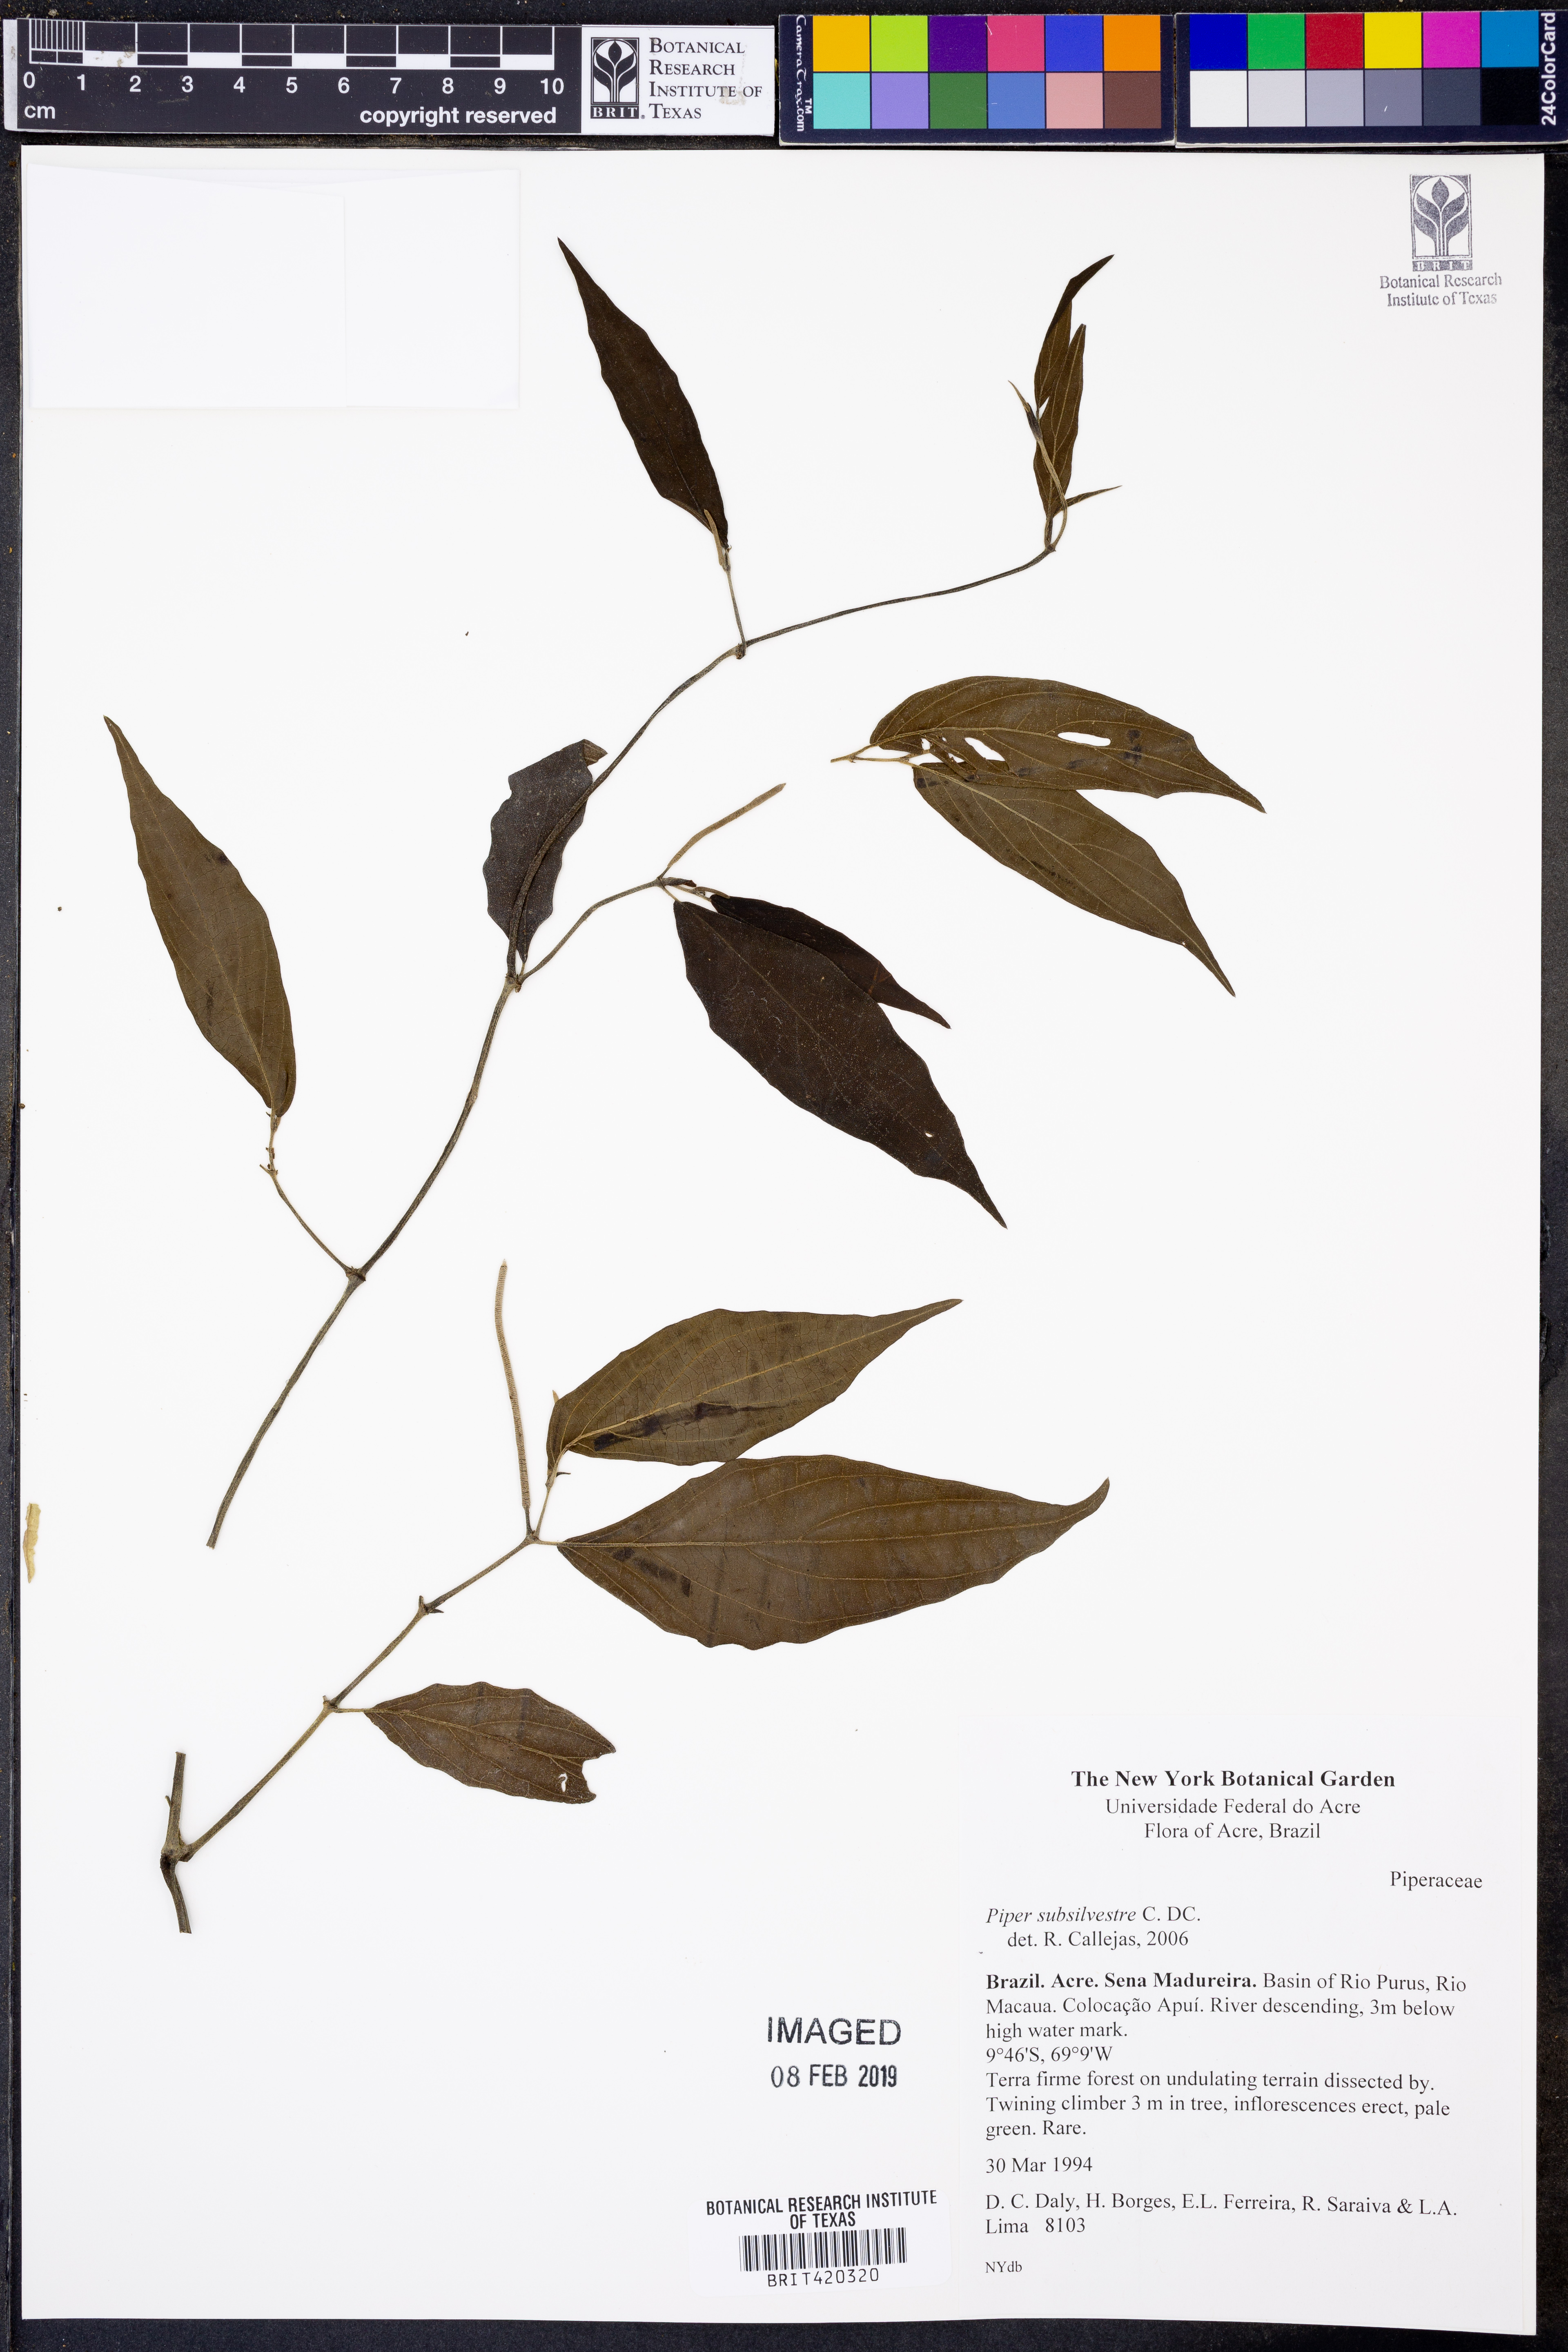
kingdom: Plantae
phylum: Tracheophyta
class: Magnoliopsida
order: Piperales
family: Piperaceae
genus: Piper
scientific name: Piper subsilvestre
